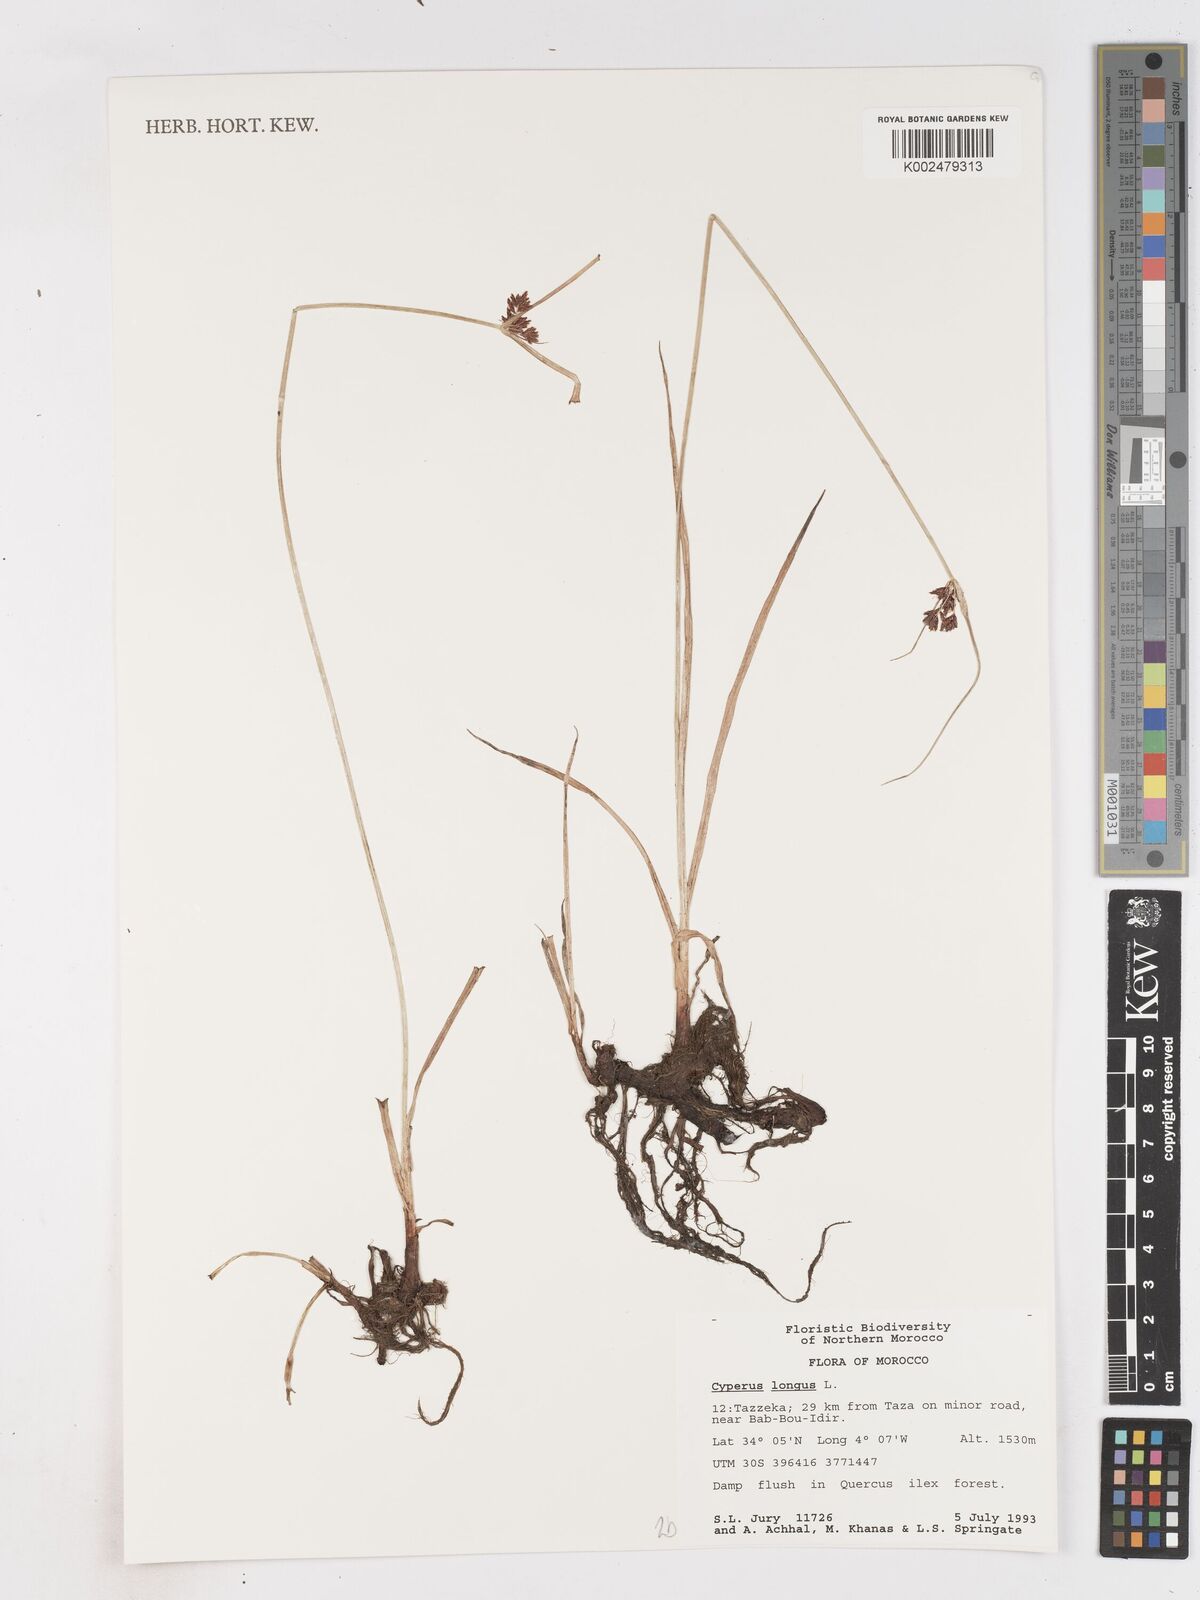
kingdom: Plantae
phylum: Tracheophyta
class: Liliopsida
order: Poales
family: Cyperaceae
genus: Cyperus
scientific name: Cyperus longus
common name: Galingale
